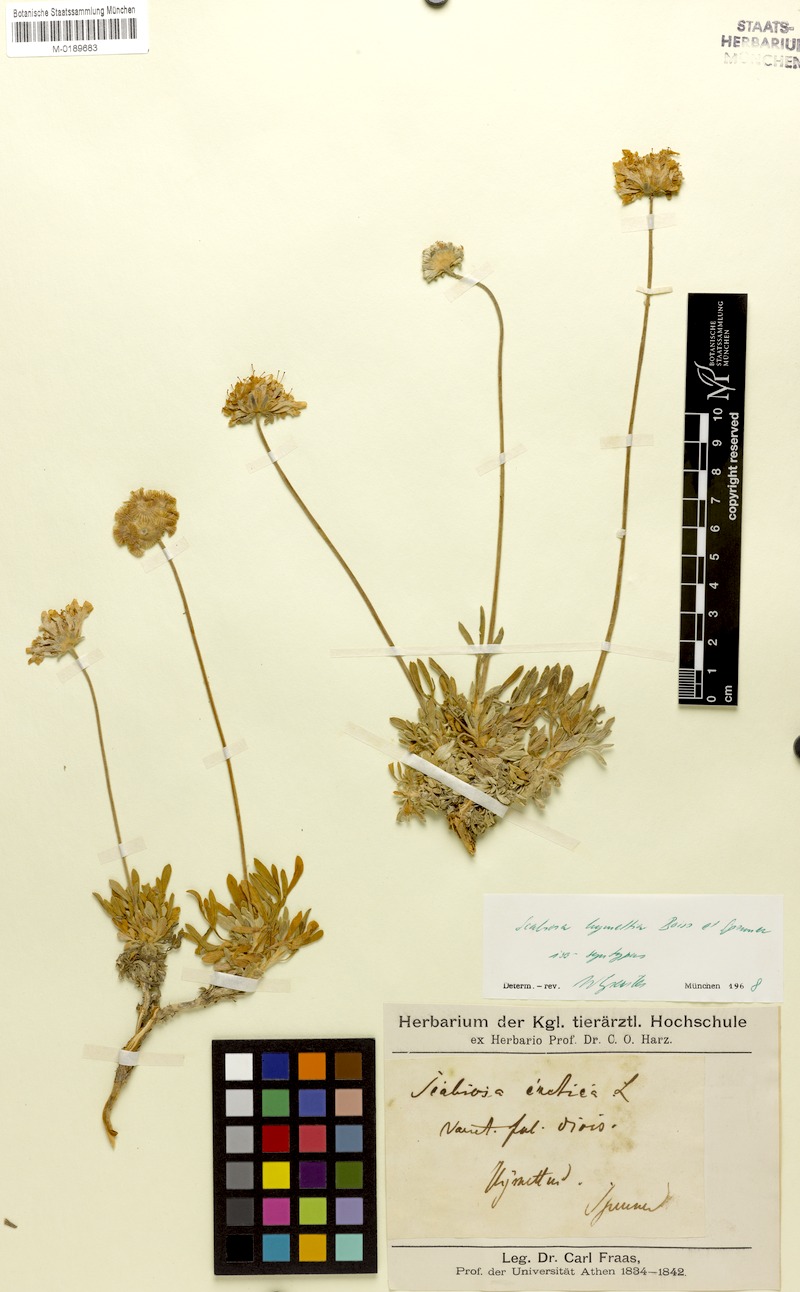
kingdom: Plantae
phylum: Tracheophyta
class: Magnoliopsida
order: Dipsacales
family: Caprifoliaceae
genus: Lomelosia
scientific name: Lomelosia hymettia
